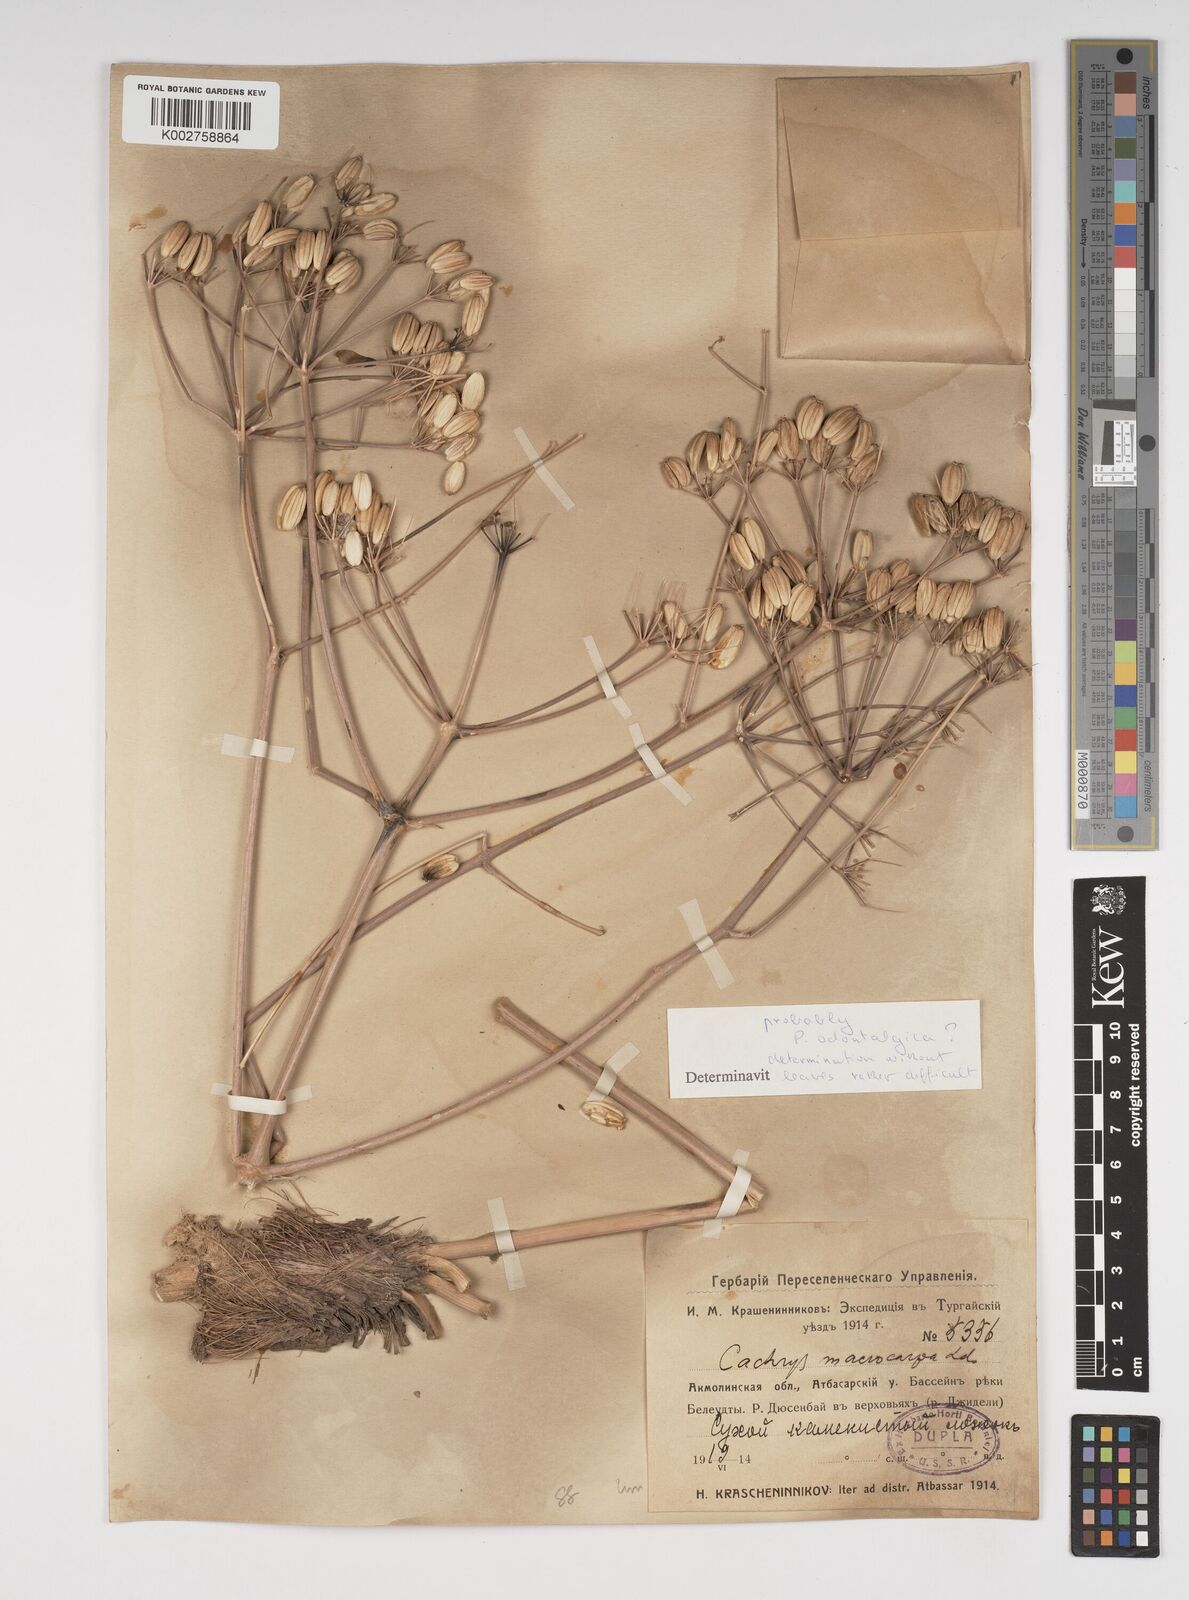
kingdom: Plantae
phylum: Tracheophyta
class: Magnoliopsida
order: Apiales
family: Apiaceae
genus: Prangos
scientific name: Prangos ferulacea
